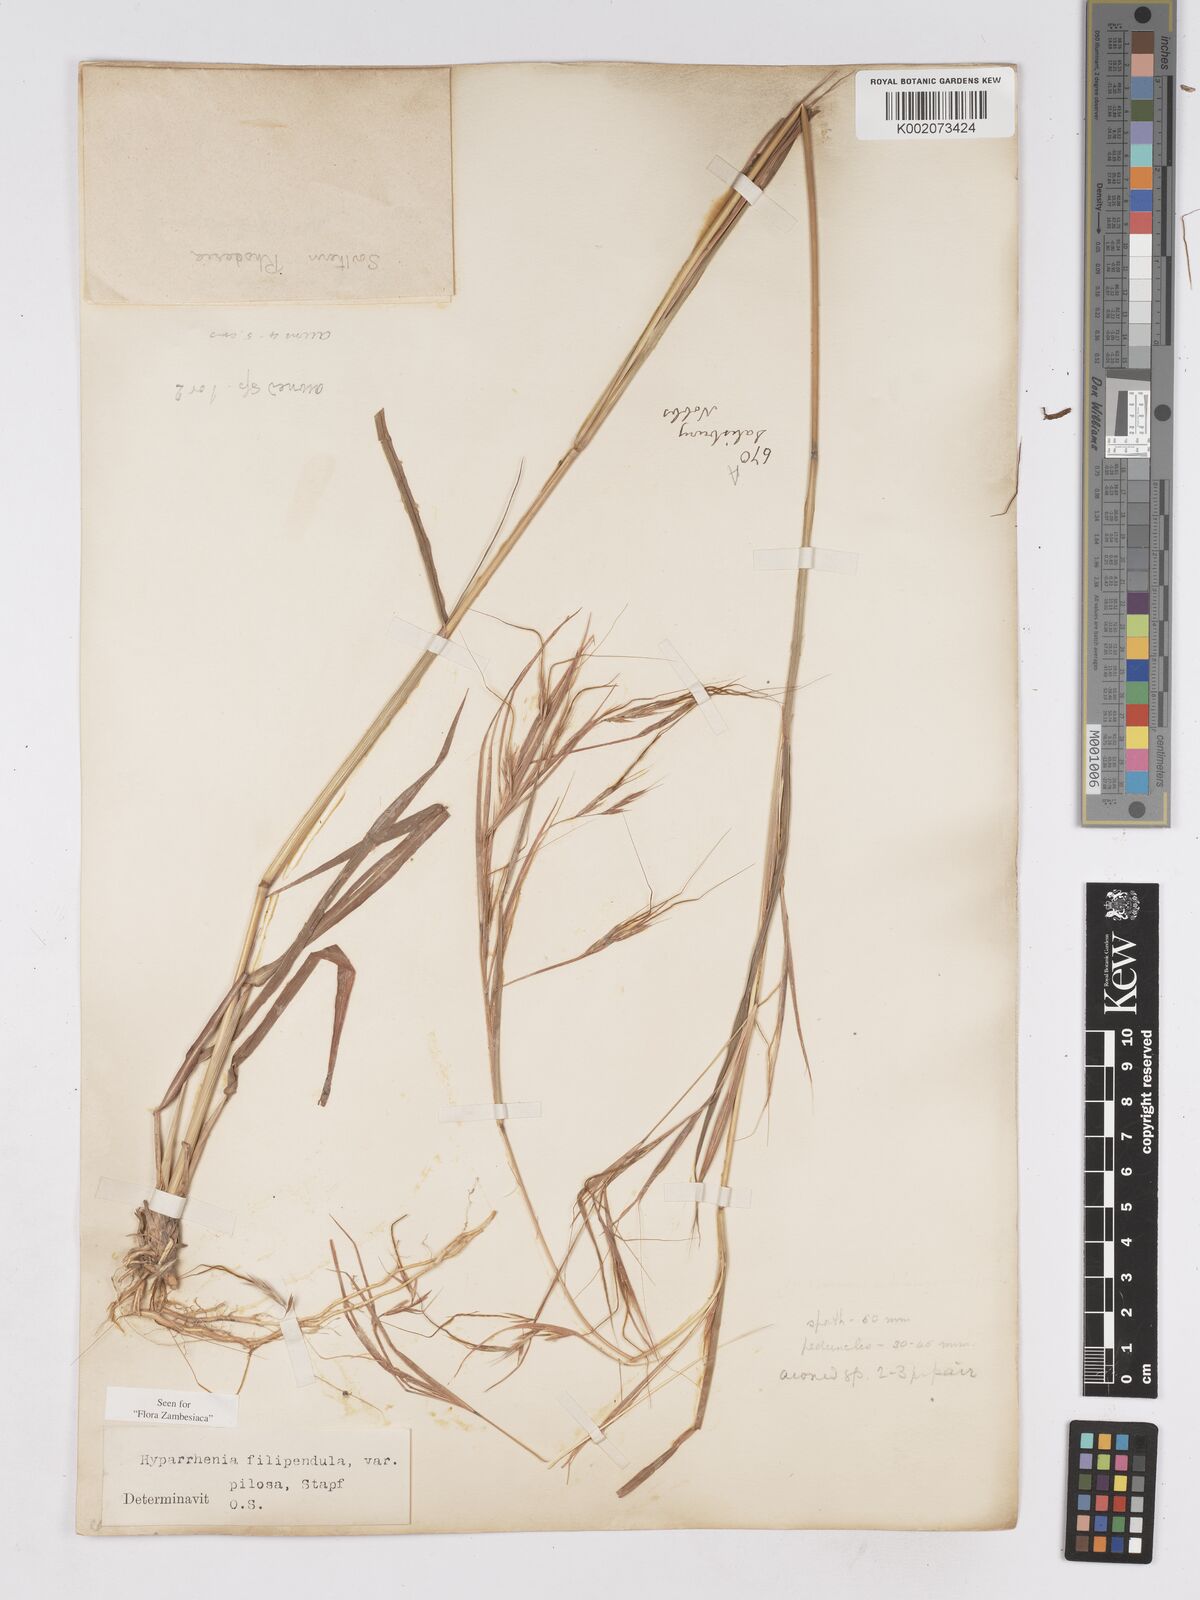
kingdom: Plantae
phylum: Tracheophyta
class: Liliopsida
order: Poales
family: Poaceae
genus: Hyparrhenia
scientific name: Hyparrhenia filipendula
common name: Tambookie grass
